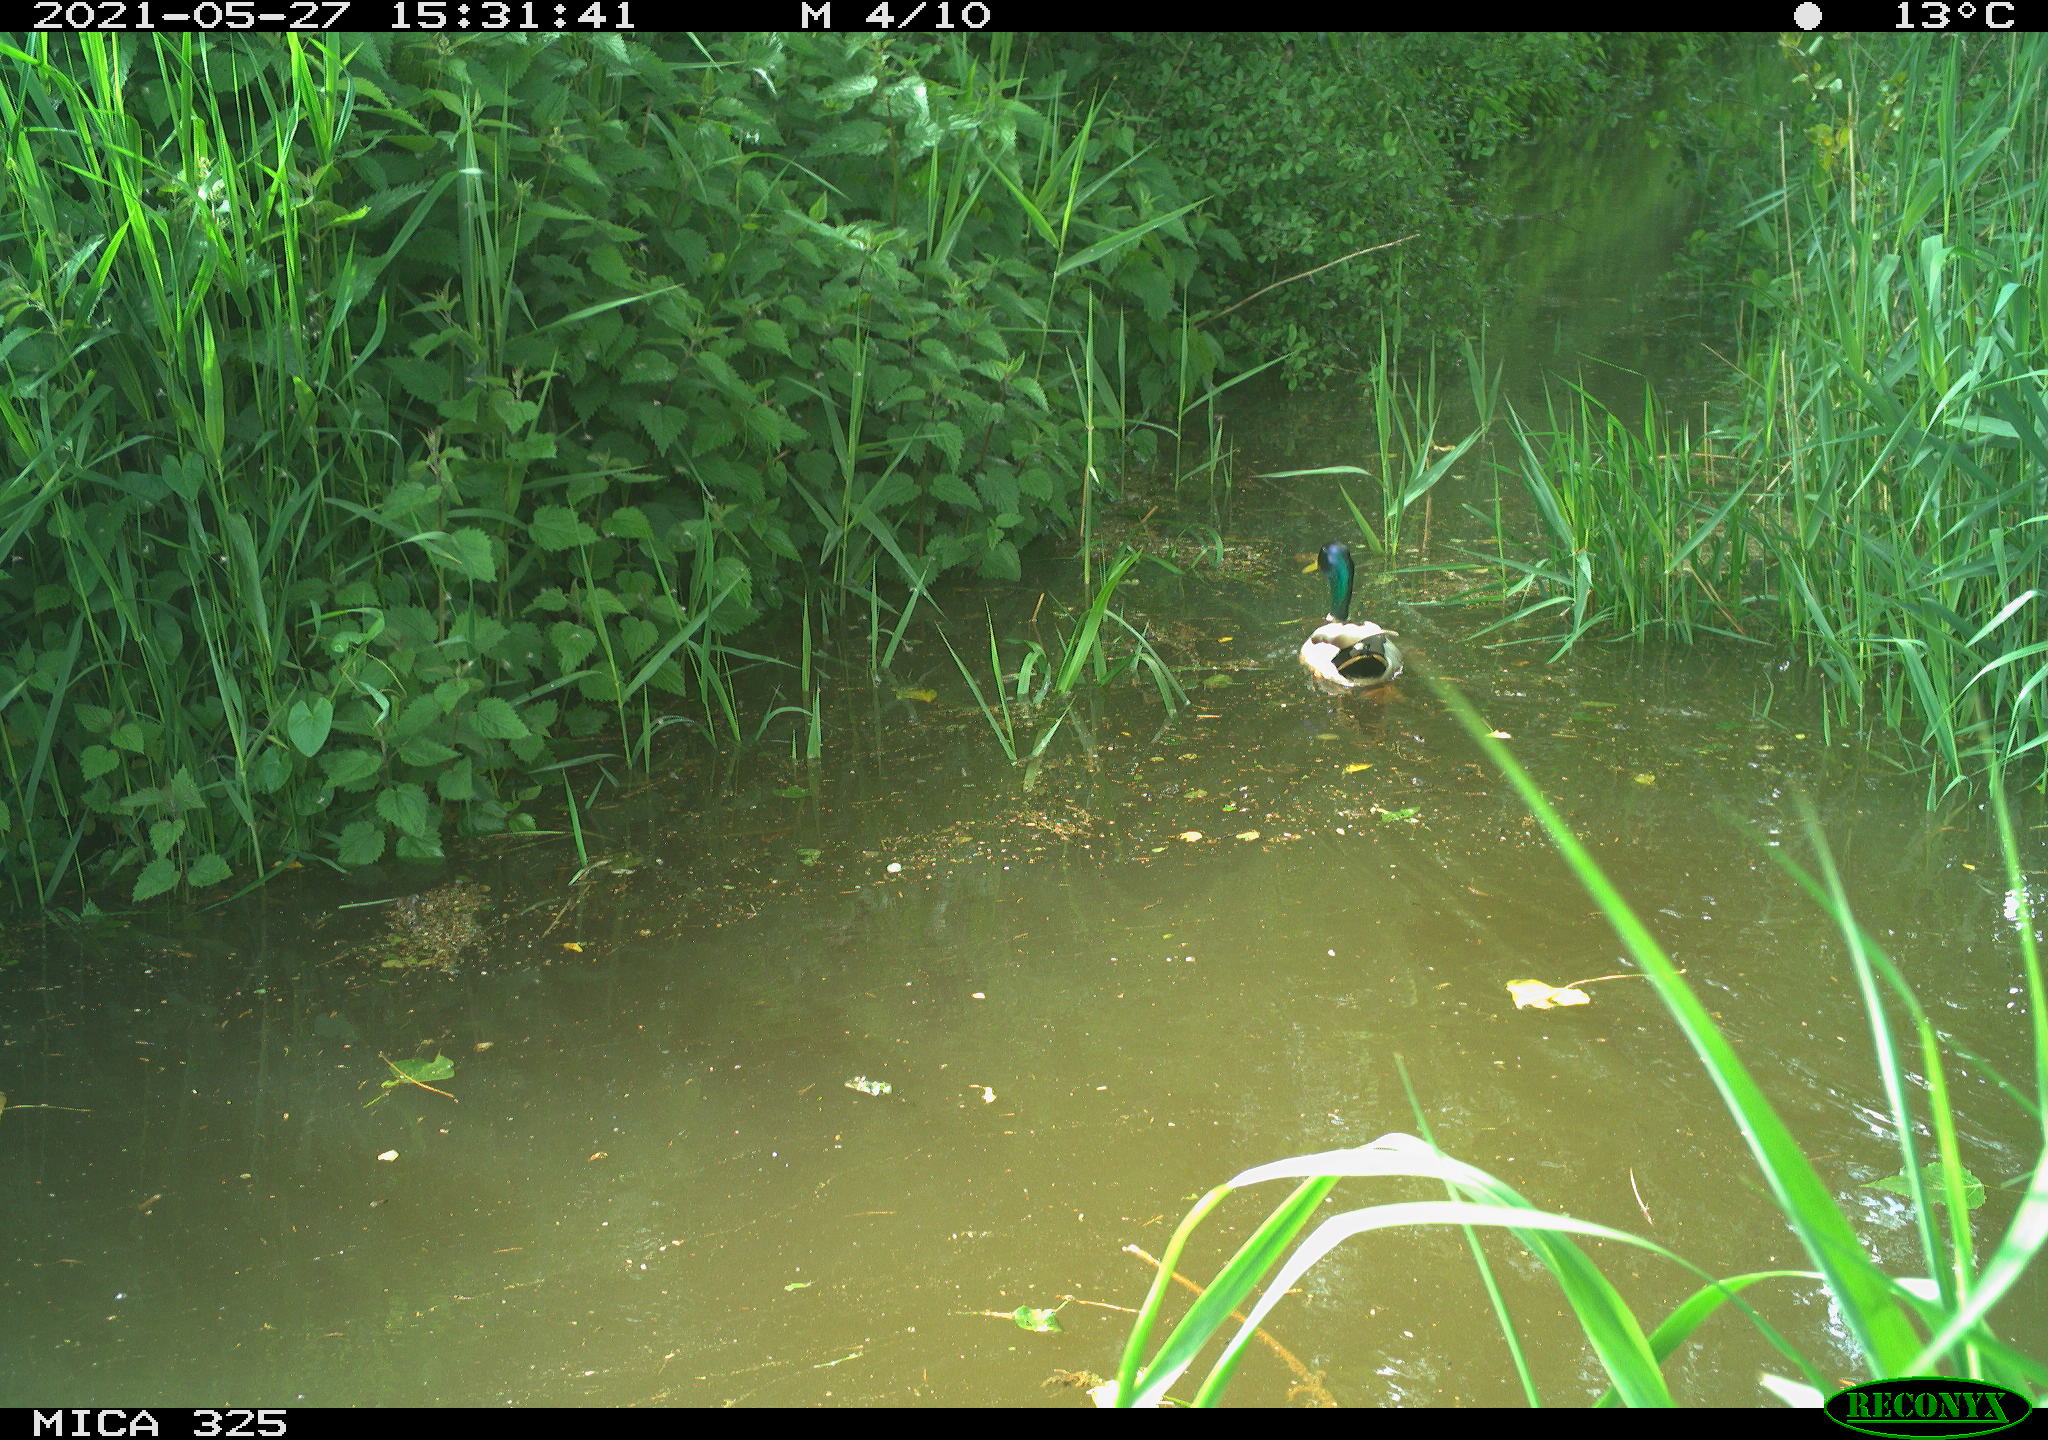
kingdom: Animalia
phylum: Chordata
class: Aves
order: Anseriformes
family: Anatidae
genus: Anas
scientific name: Anas platyrhynchos
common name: Mallard
